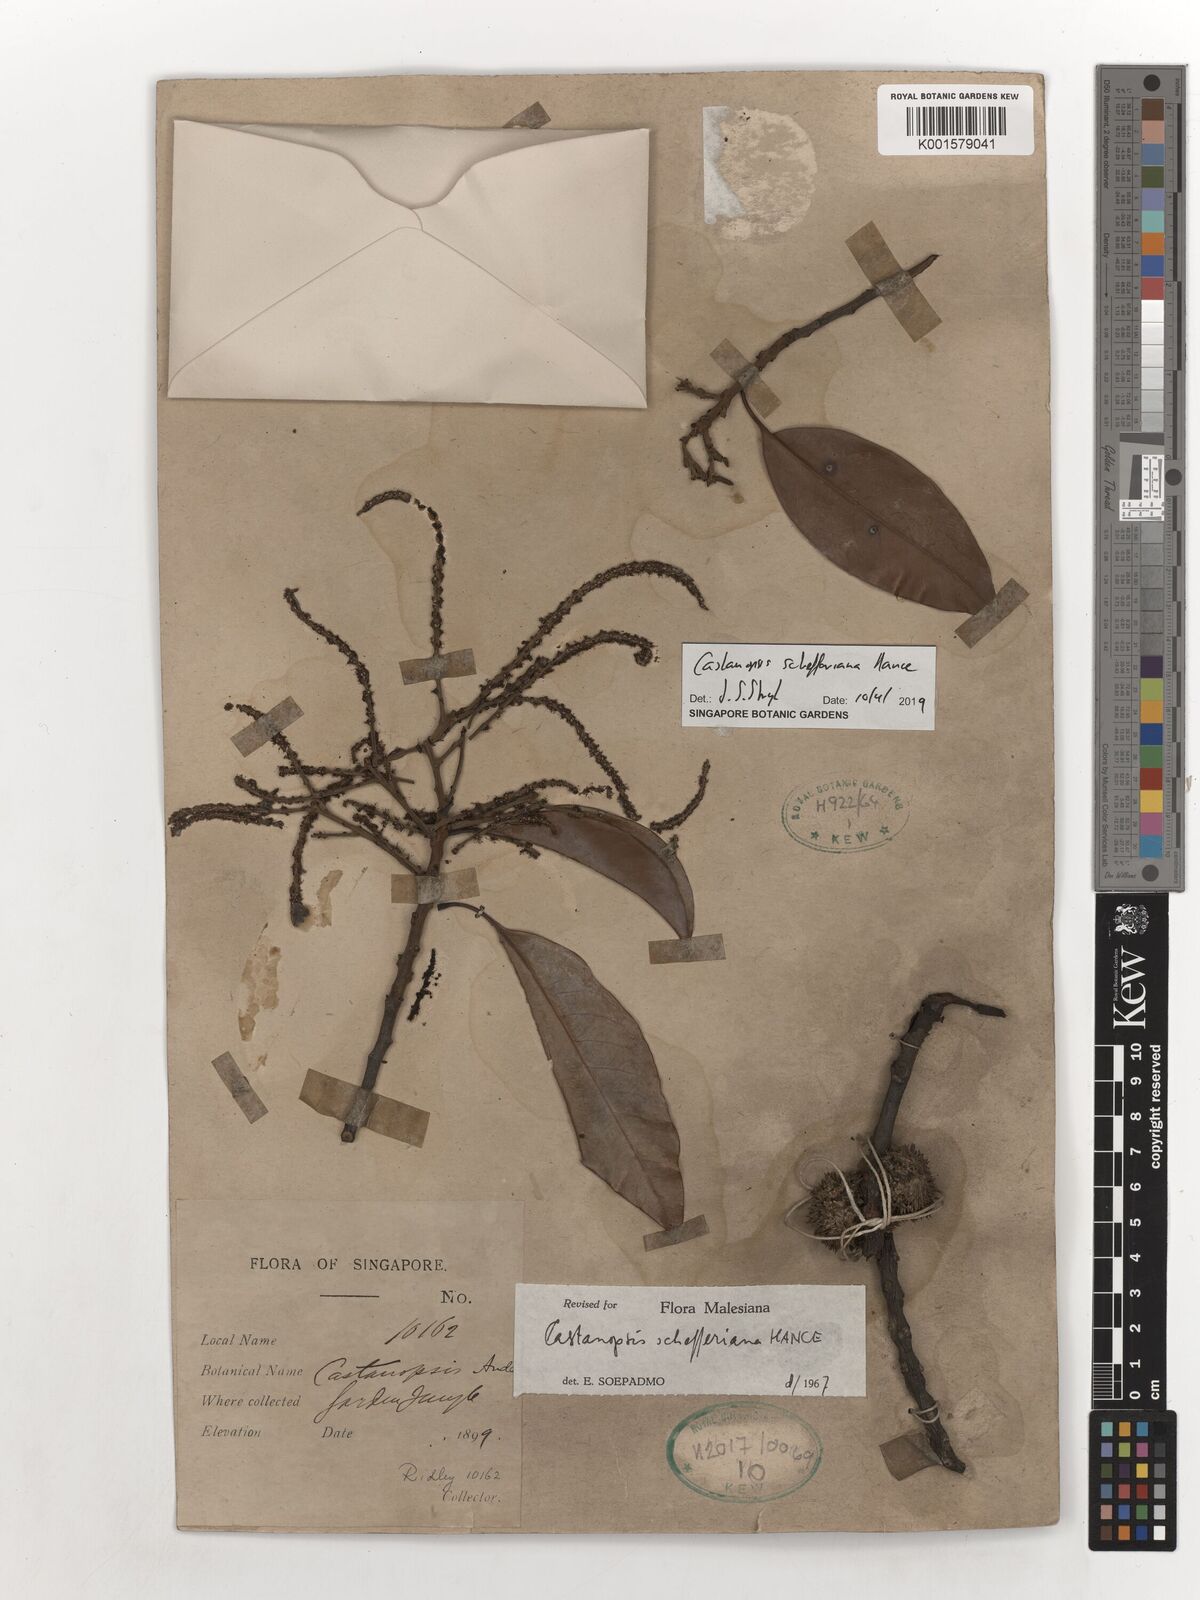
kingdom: Plantae
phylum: Tracheophyta
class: Magnoliopsida
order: Fagales
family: Fagaceae
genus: Castanopsis
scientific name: Castanopsis schefferiana
